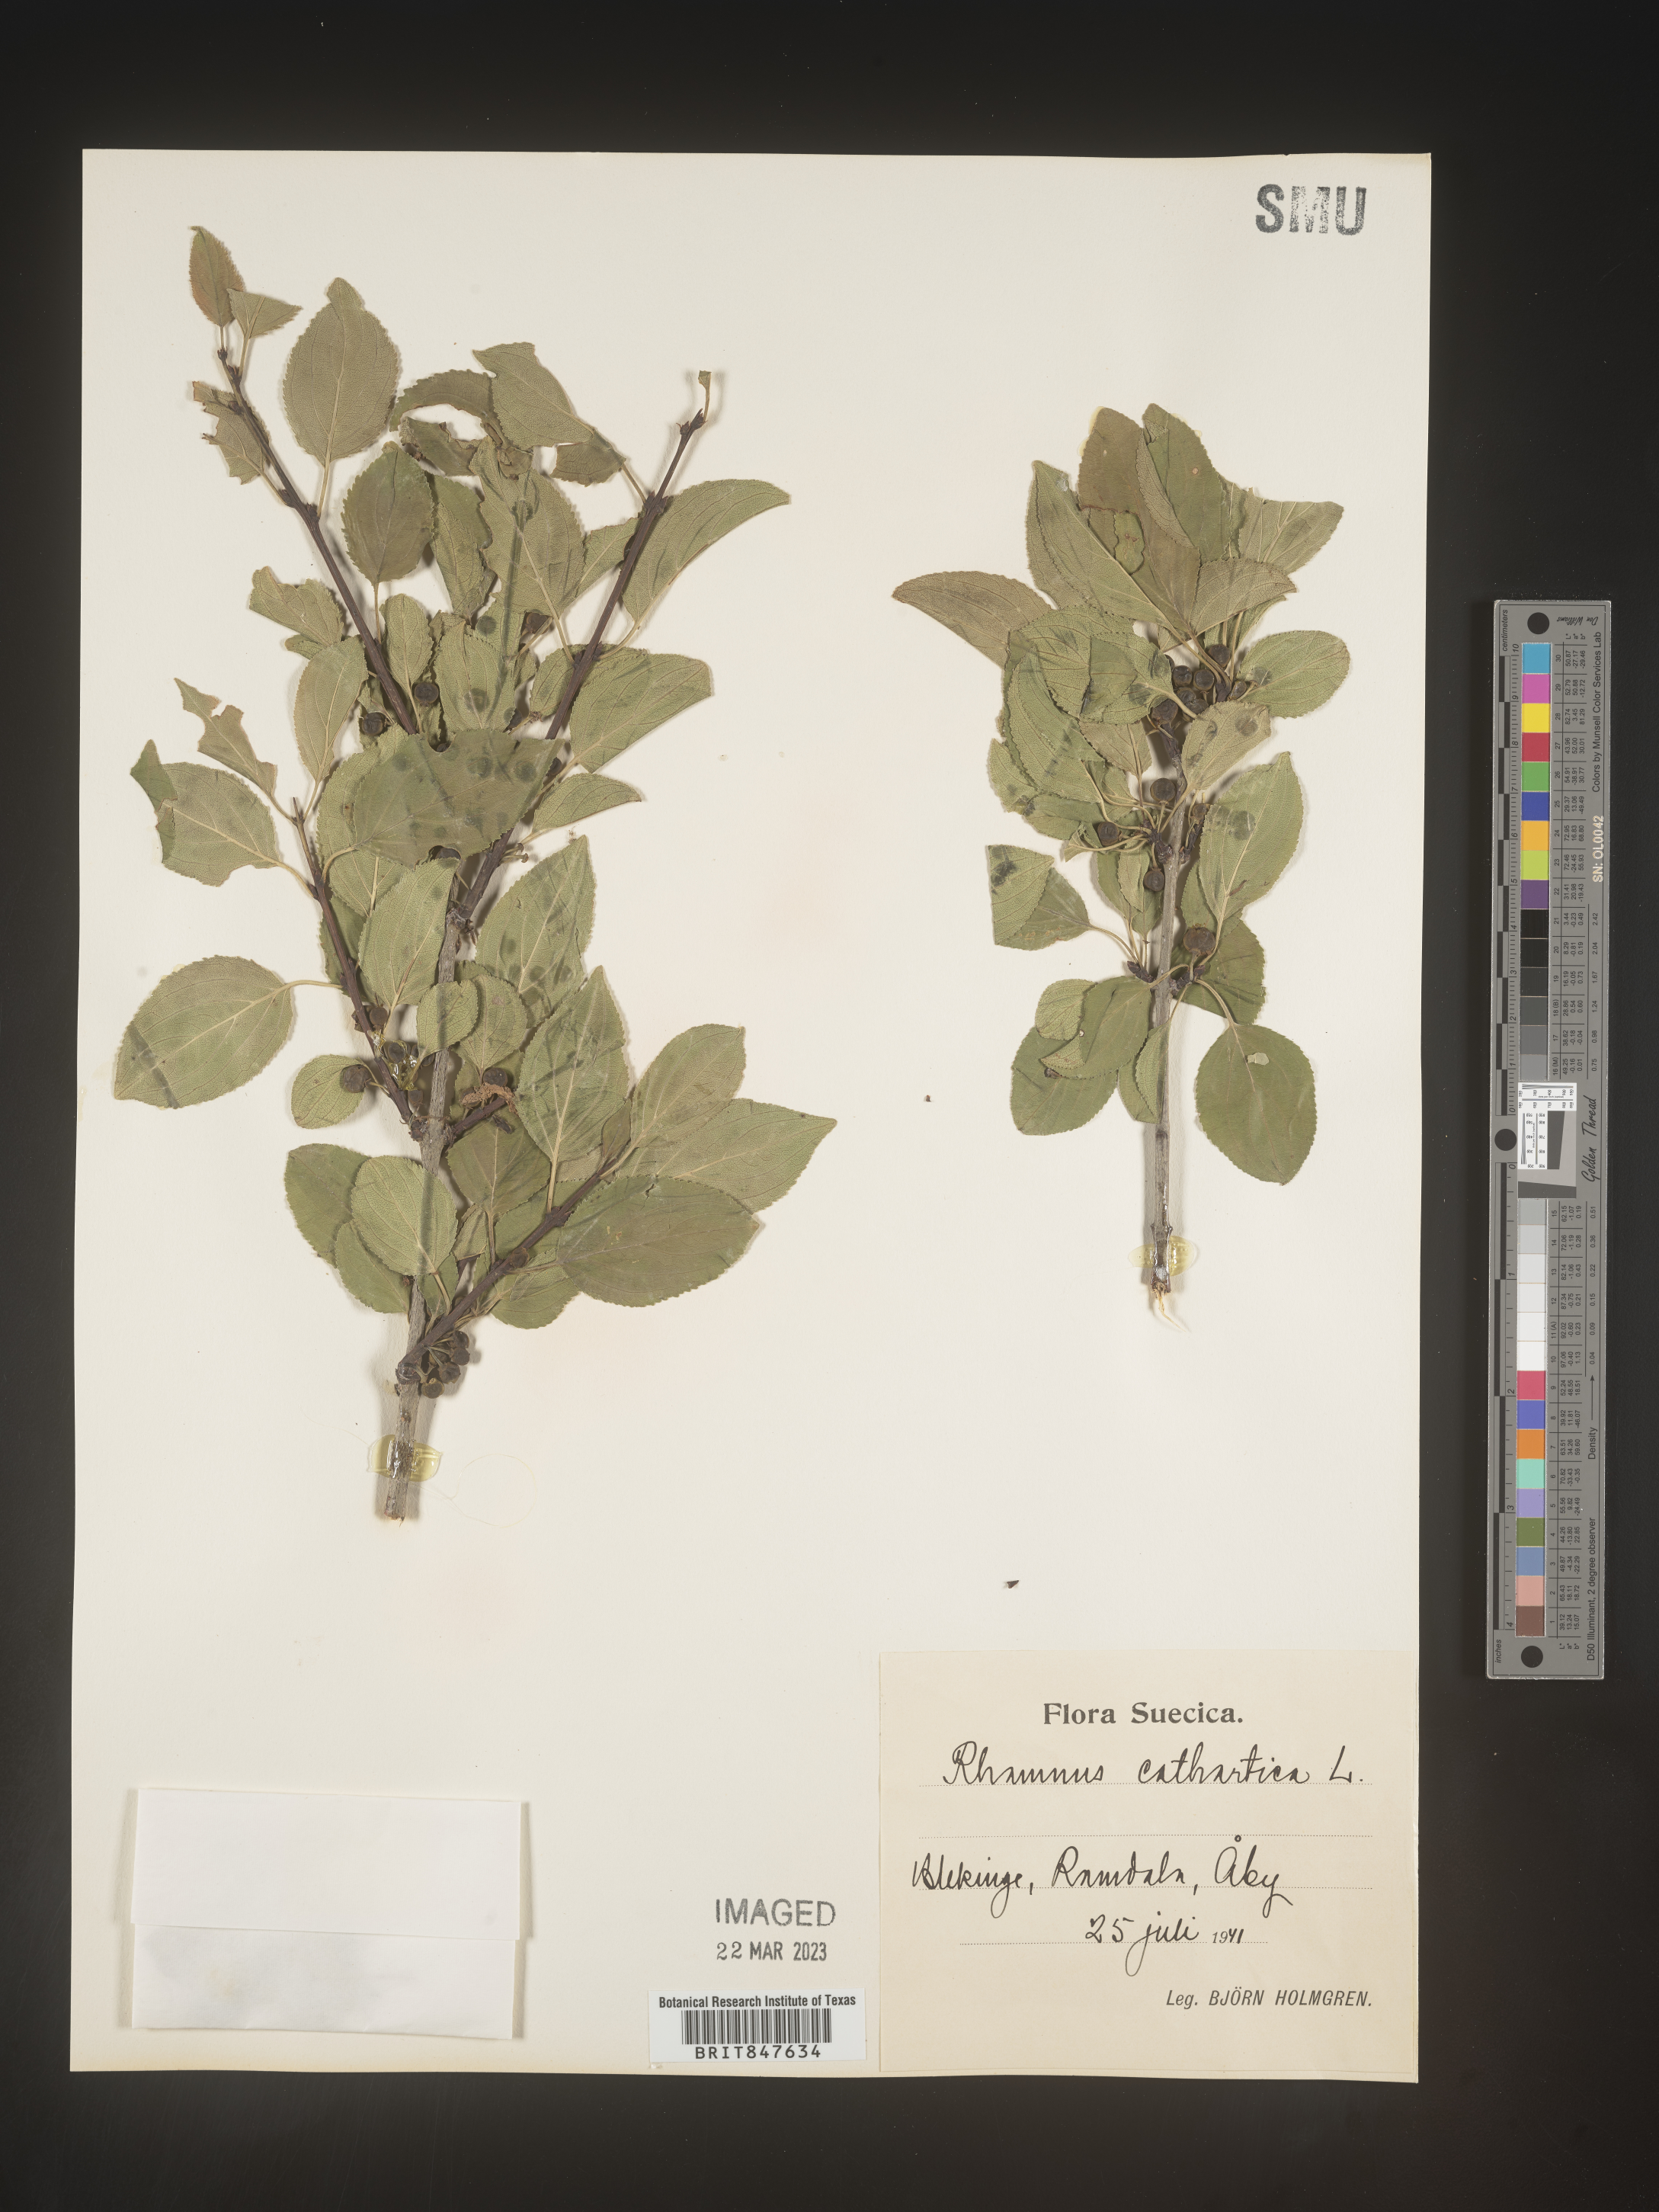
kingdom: Plantae
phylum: Tracheophyta
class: Magnoliopsida
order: Rosales
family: Rhamnaceae
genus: Rhamnus
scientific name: Rhamnus cathartica
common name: Common buckthorn
